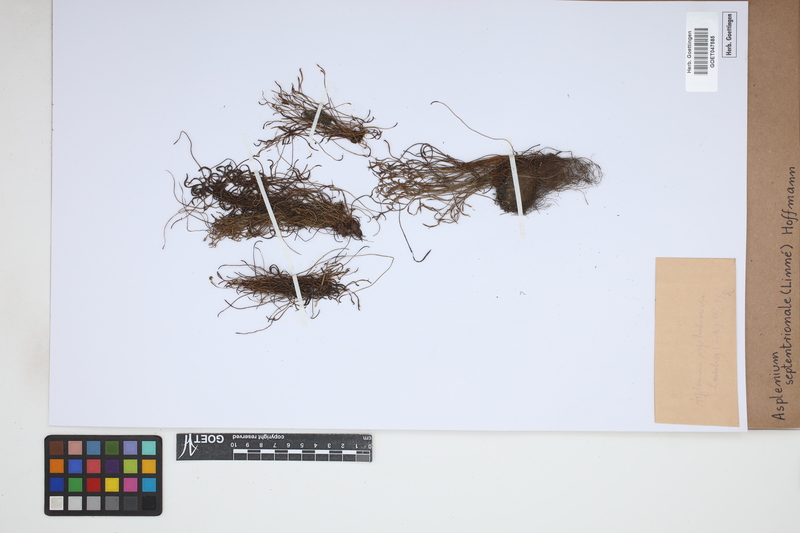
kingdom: Plantae
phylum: Tracheophyta
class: Polypodiopsida
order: Polypodiales
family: Aspleniaceae
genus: Asplenium
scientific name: Asplenium septentrionale
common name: Forked spleenwort
